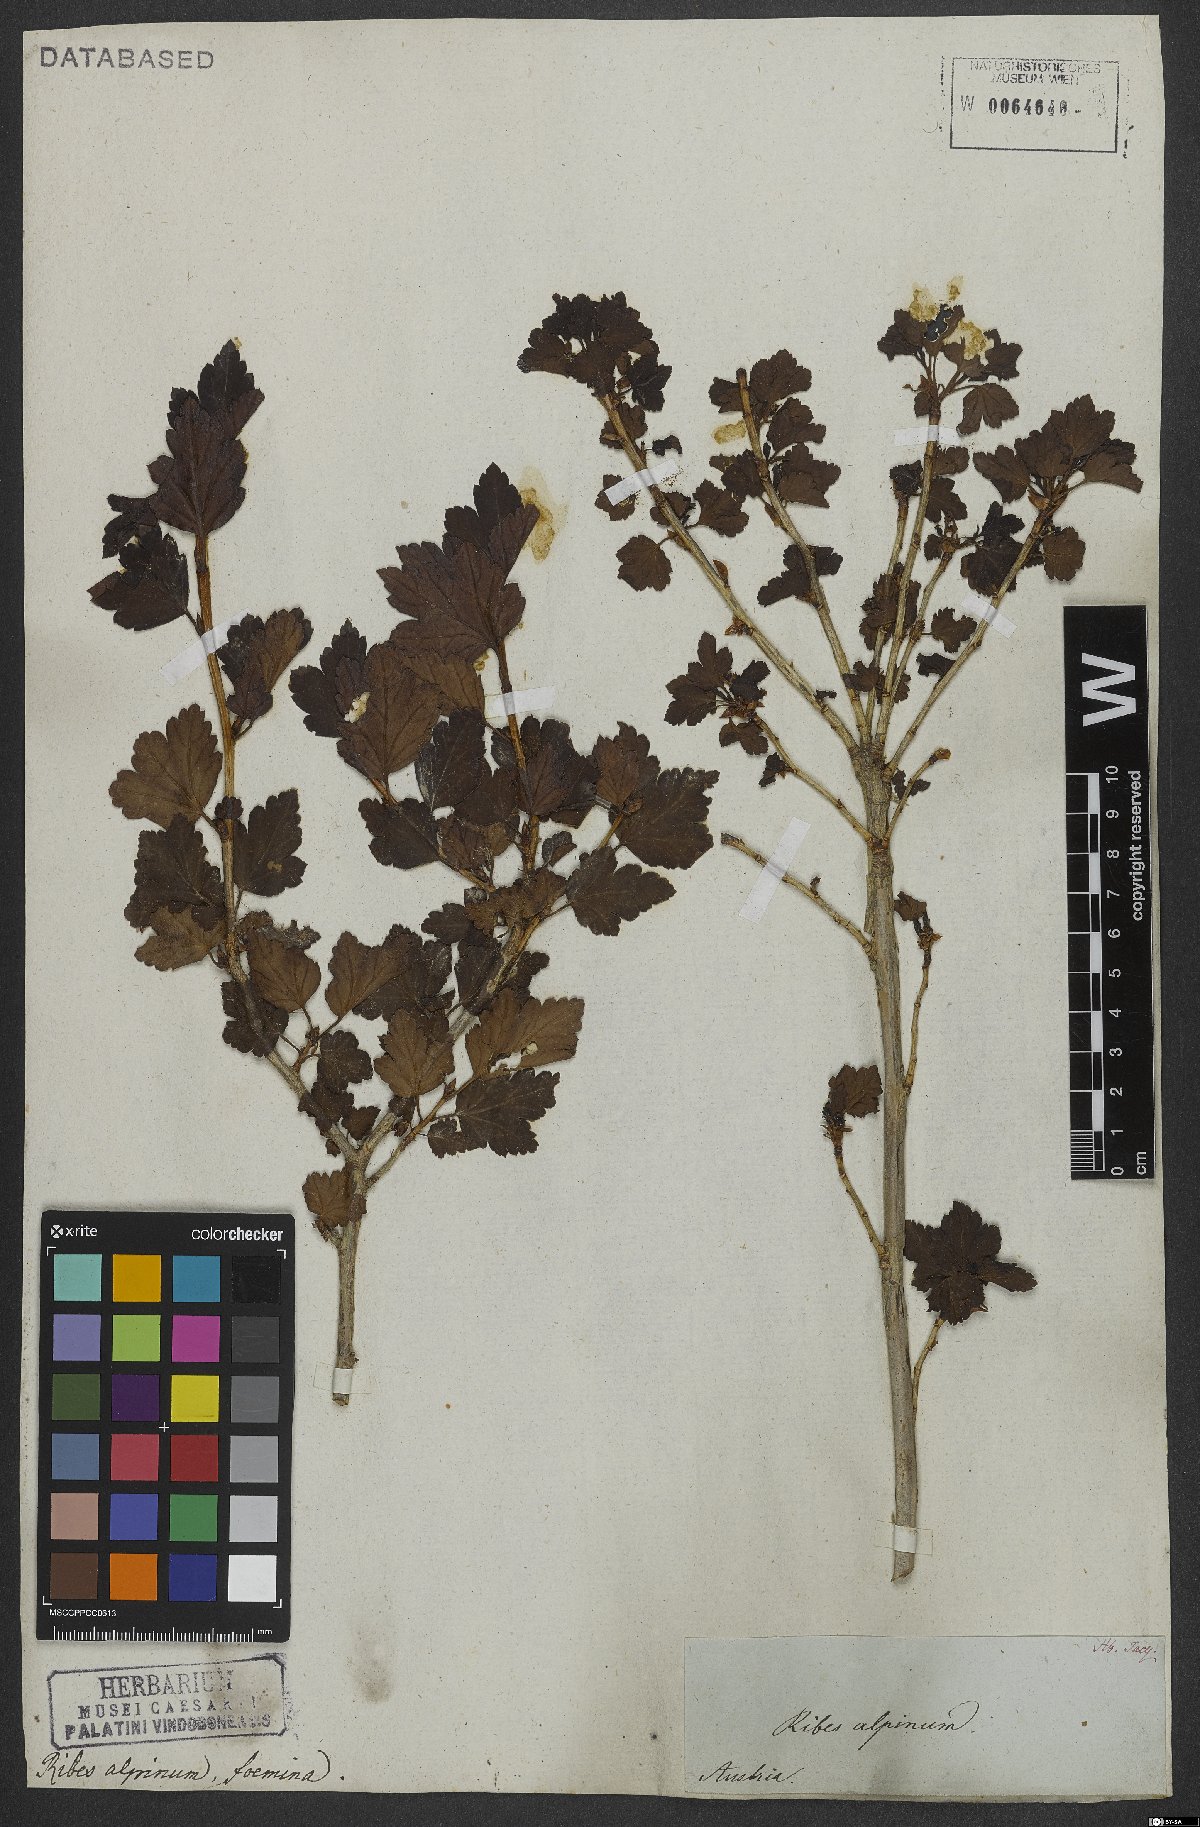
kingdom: Plantae
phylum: Tracheophyta
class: Magnoliopsida
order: Saxifragales
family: Grossulariaceae
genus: Ribes
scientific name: Ribes alpinum
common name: Alpine currant
